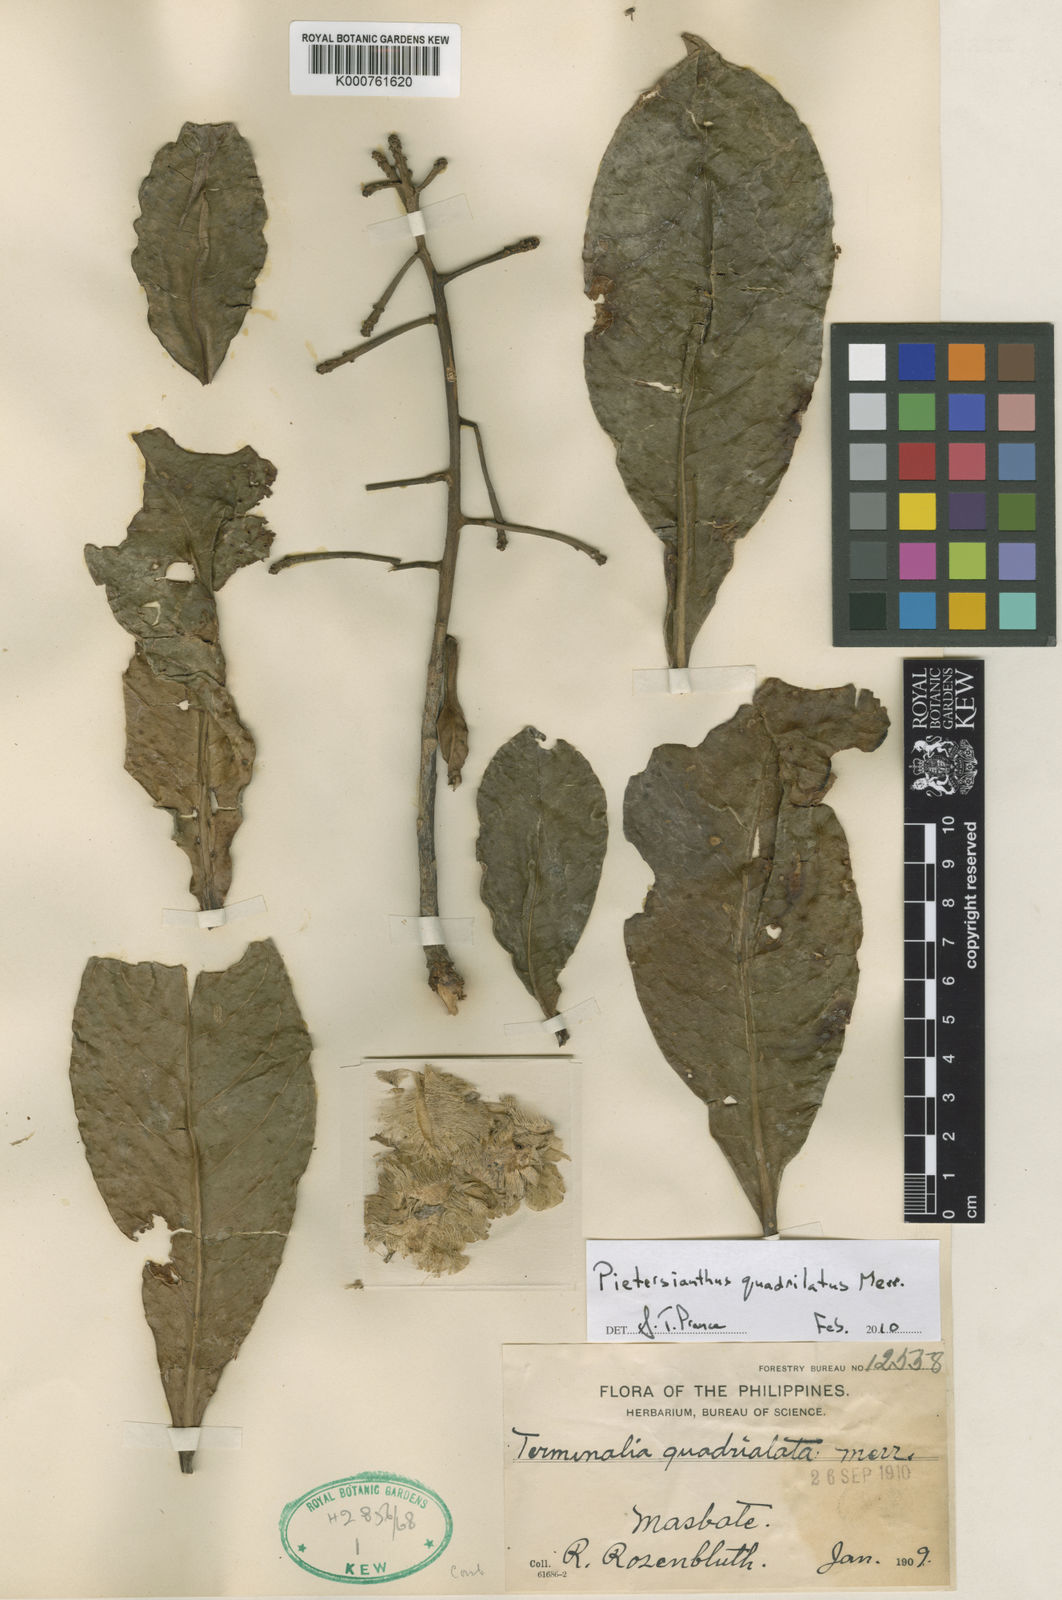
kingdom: Plantae
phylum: Tracheophyta
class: Magnoliopsida
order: Ericales
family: Lecythidaceae
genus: Petersianthus
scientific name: Petersianthus quadrialatus
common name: Philippine rosewood
